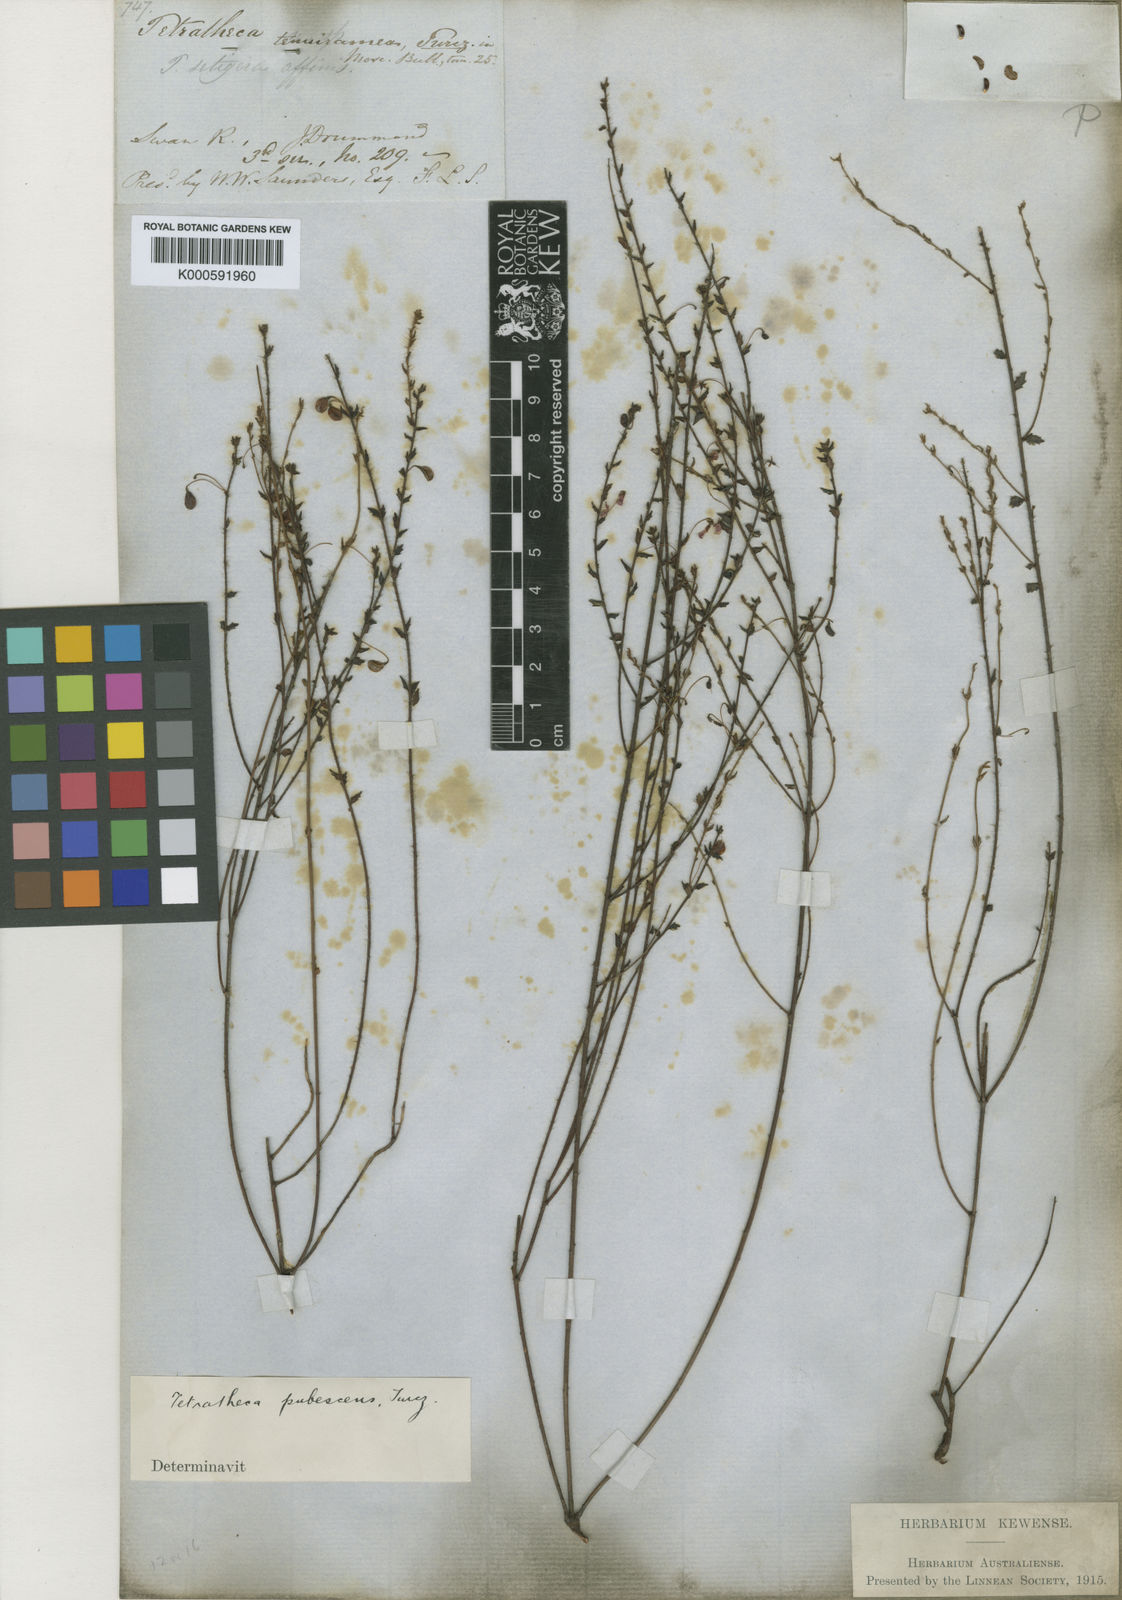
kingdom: Plantae
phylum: Tracheophyta
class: Magnoliopsida
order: Oxalidales
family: Elaeocarpaceae
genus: Tetratheca
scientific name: Tetratheca pubescens
